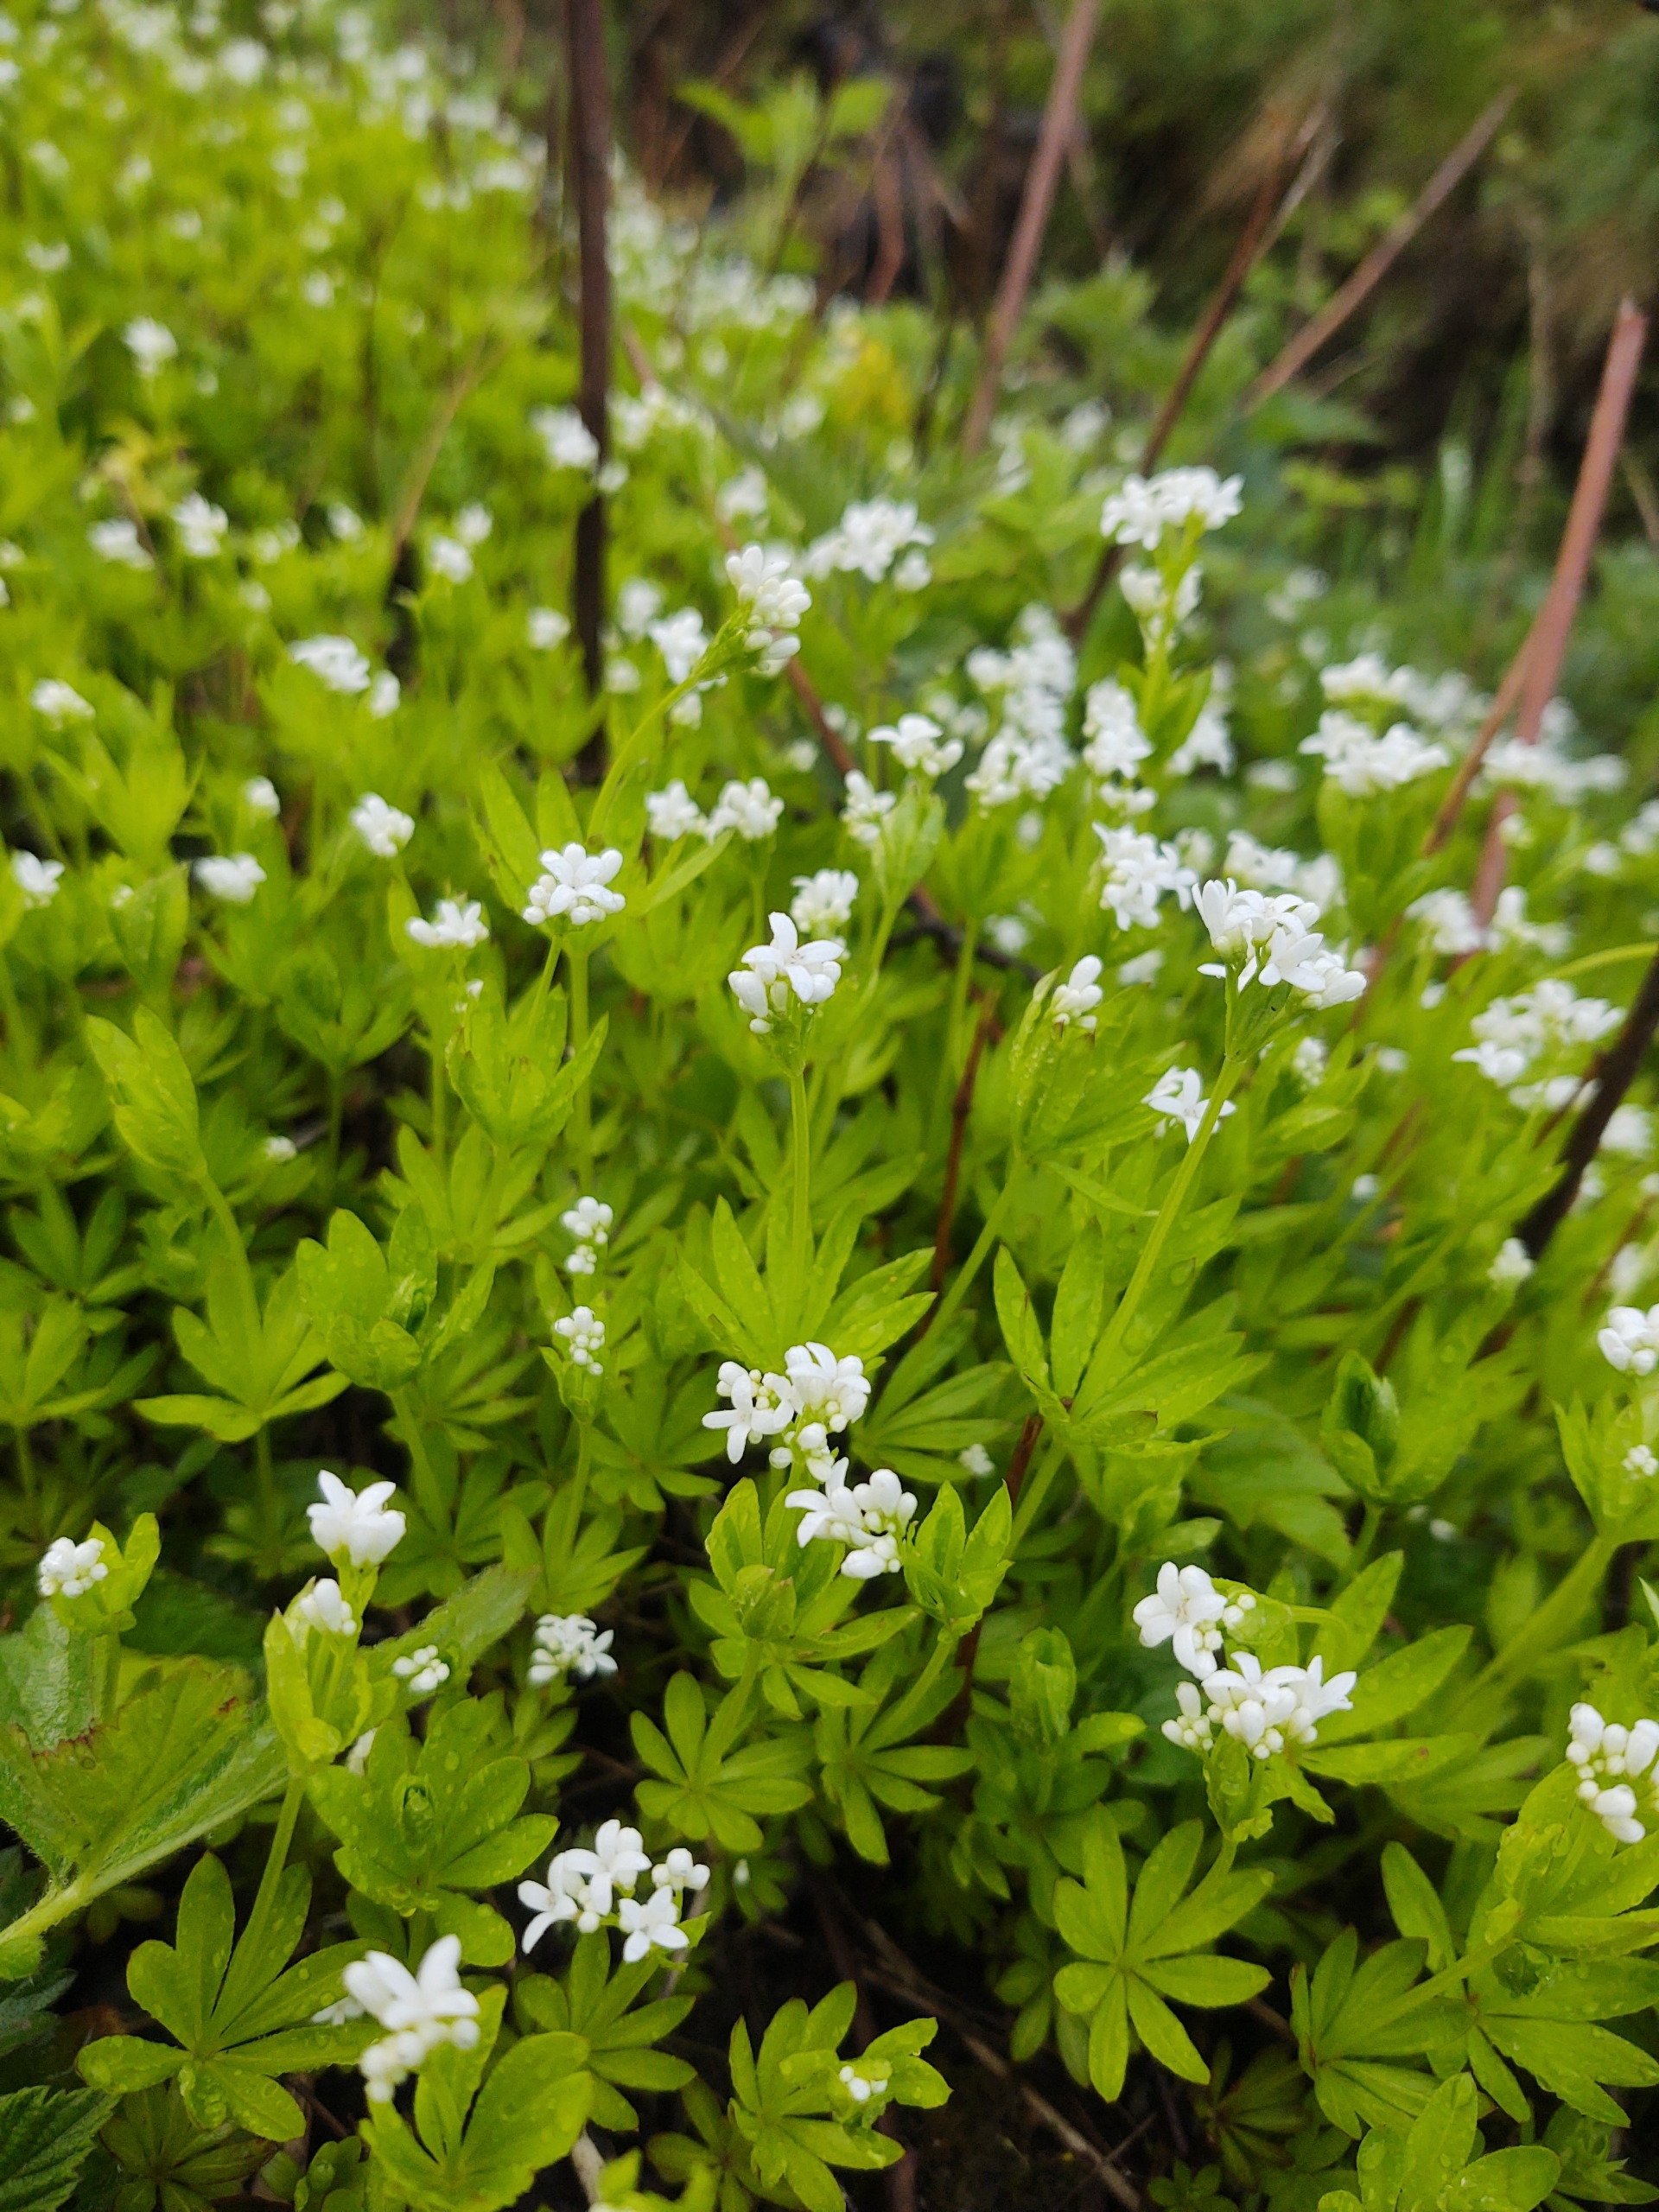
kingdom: Plantae
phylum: Tracheophyta
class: Magnoliopsida
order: Gentianales
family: Rubiaceae
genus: Galium
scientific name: Galium odoratum
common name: Skovmærke
